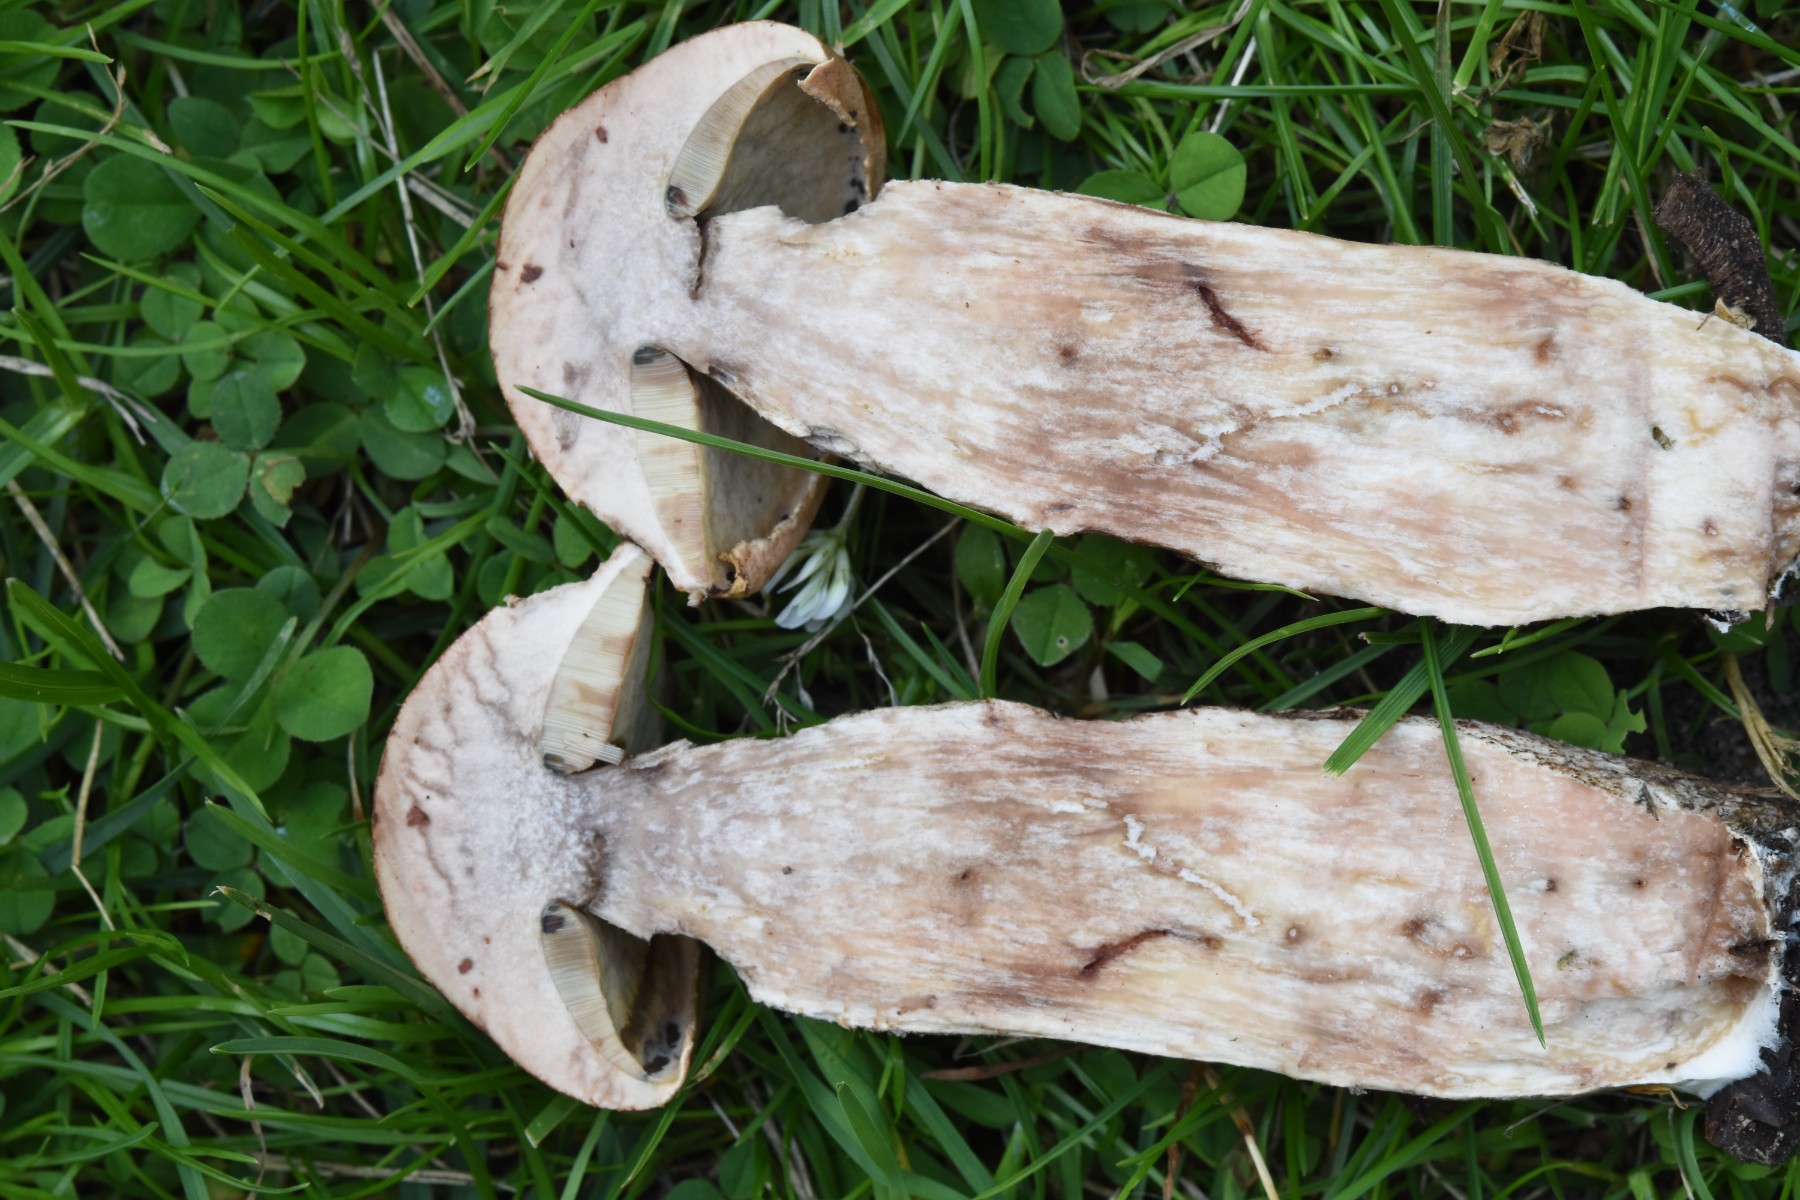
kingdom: Fungi
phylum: Basidiomycota
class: Agaricomycetes
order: Boletales
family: Boletaceae
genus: Leccinum
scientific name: Leccinum aurantiacum
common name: rustrød skælrørhat
